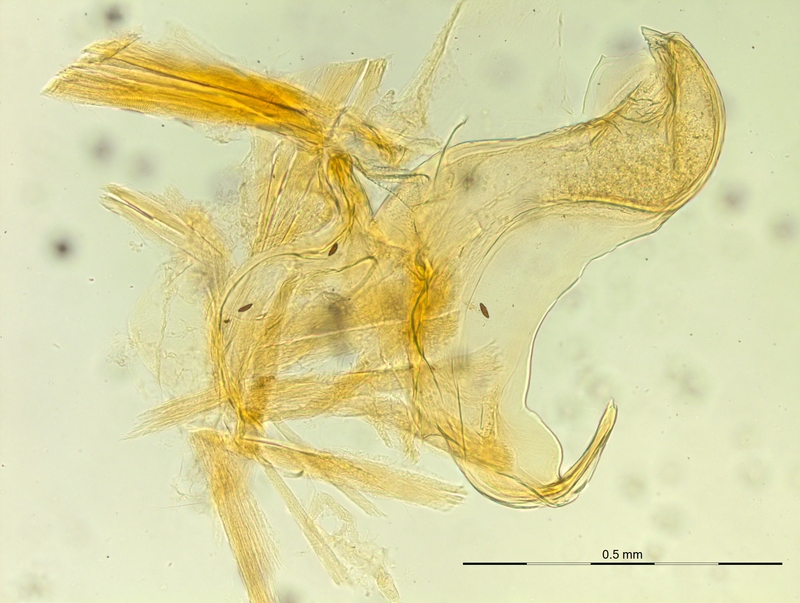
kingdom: Animalia
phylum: Arthropoda
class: Diplopoda
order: Chordeumatida
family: Craspedosomatidae
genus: Rhymogona
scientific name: Rhymogona montivaga
